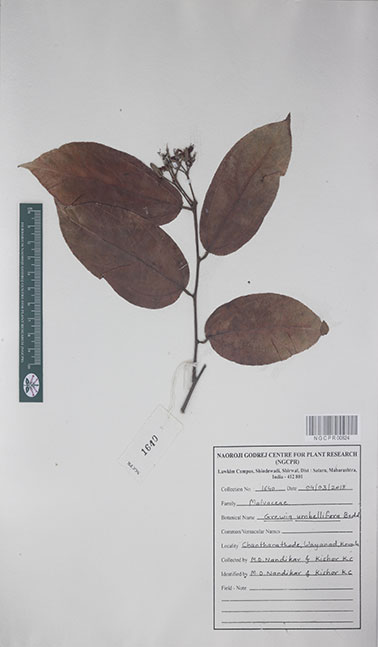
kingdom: Plantae
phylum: Tracheophyta
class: Magnoliopsida
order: Malvales
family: Malvaceae
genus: Grewia
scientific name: Grewia umbellifera
